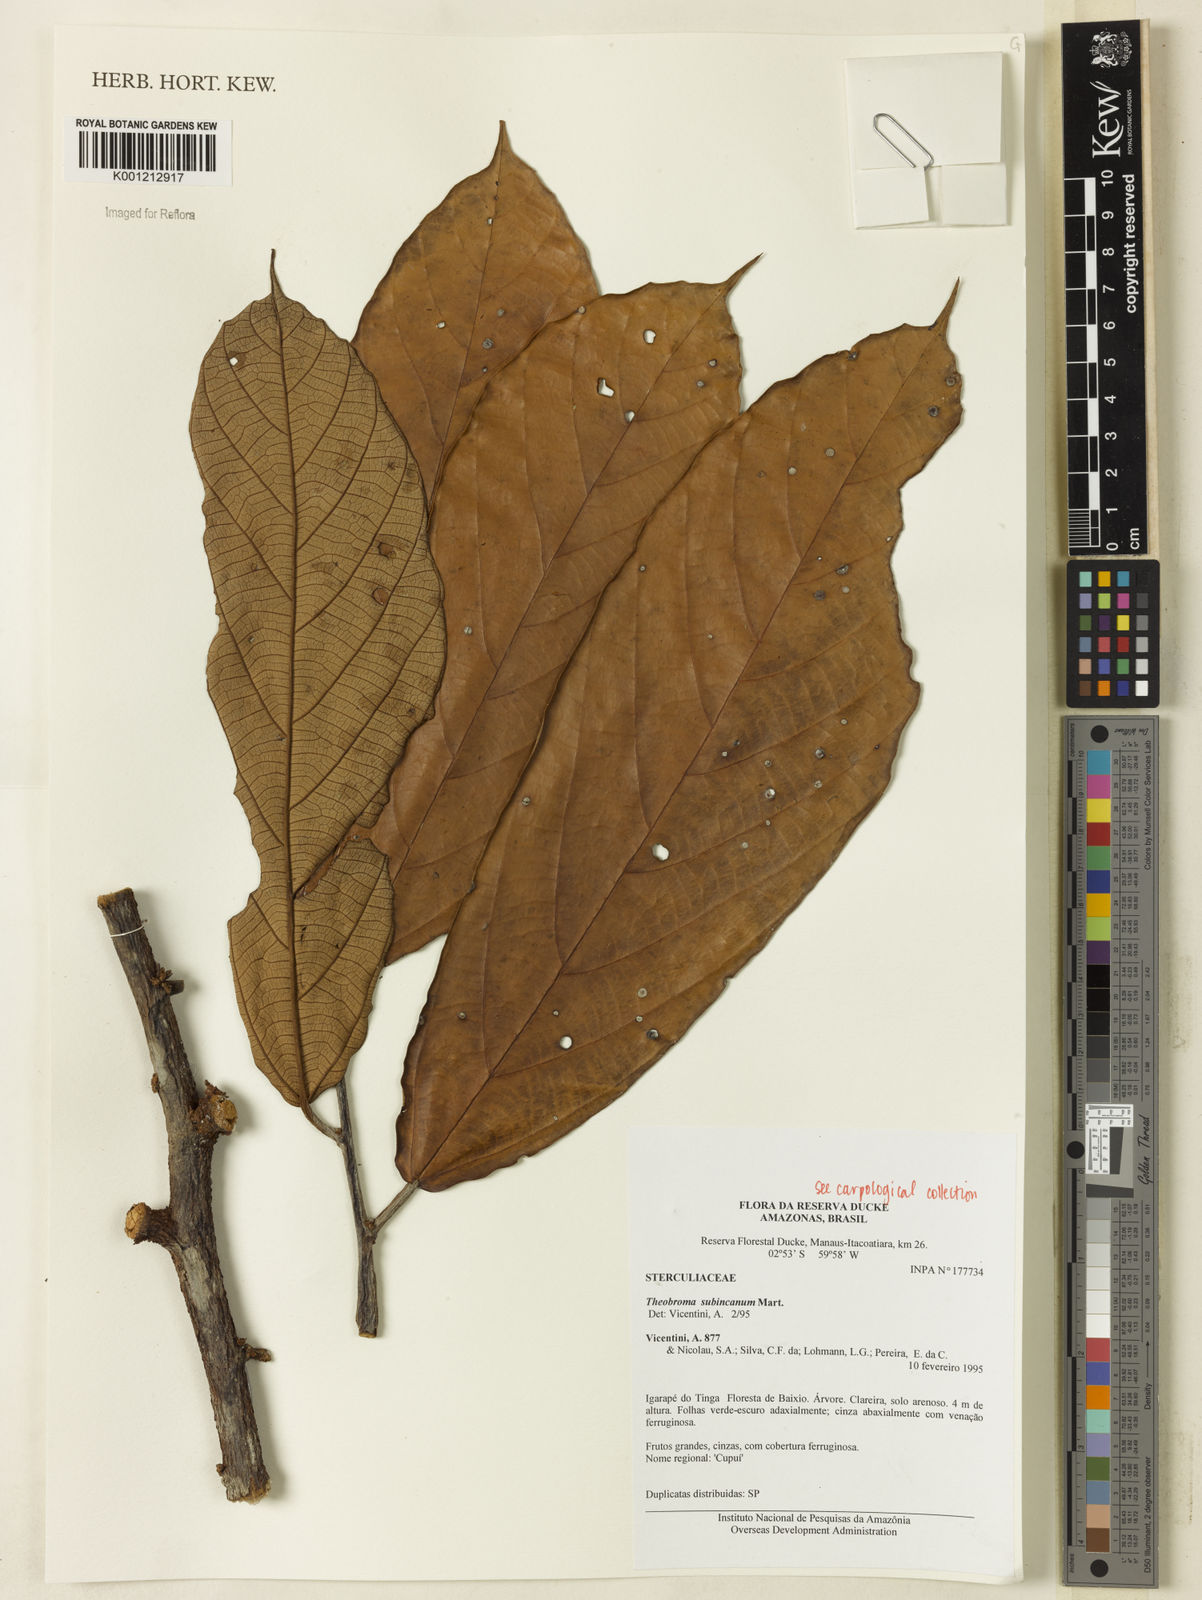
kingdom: Plantae
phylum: Tracheophyta
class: Magnoliopsida
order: Malvales
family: Malvaceae
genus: Theobroma
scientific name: Theobroma subincanum
